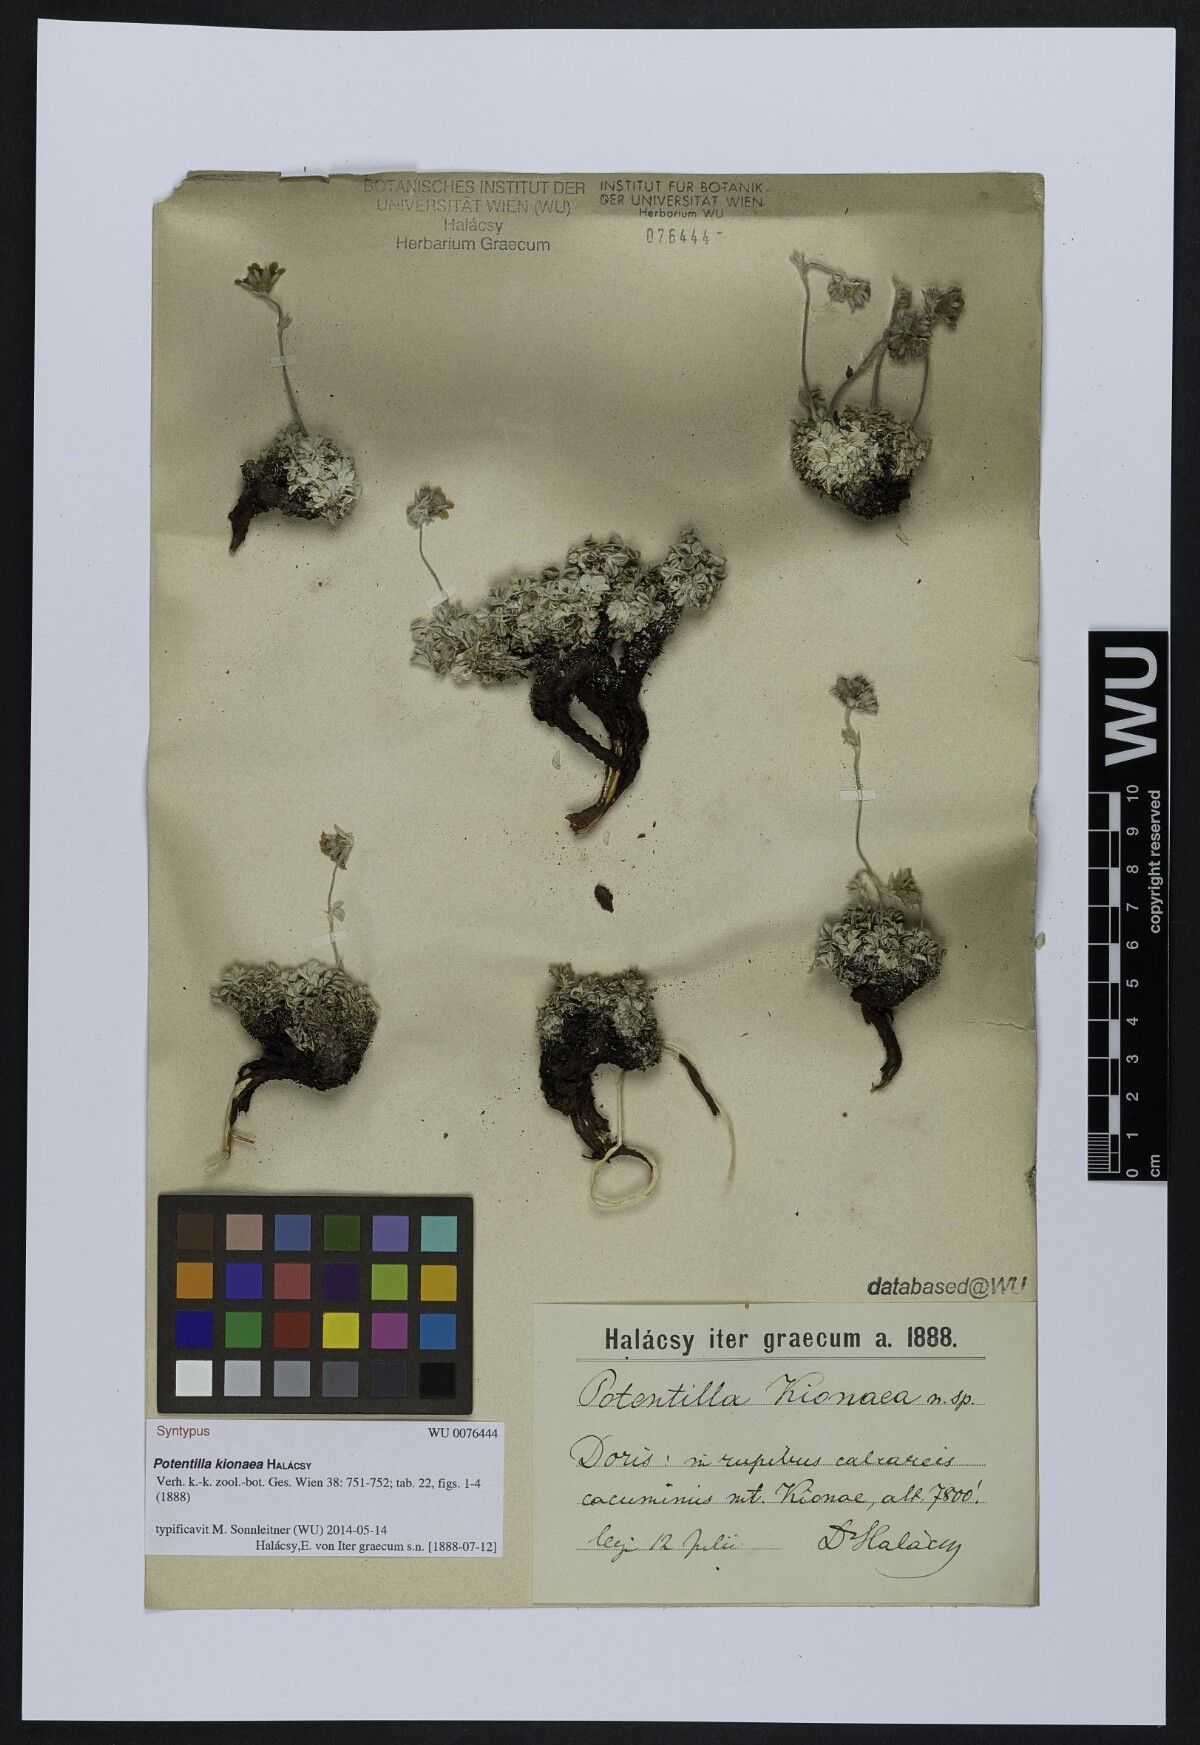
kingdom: Plantae
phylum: Tracheophyta
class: Magnoliopsida
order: Rosales
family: Rosaceae
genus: Potentilla
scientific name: Potentilla kionaea
